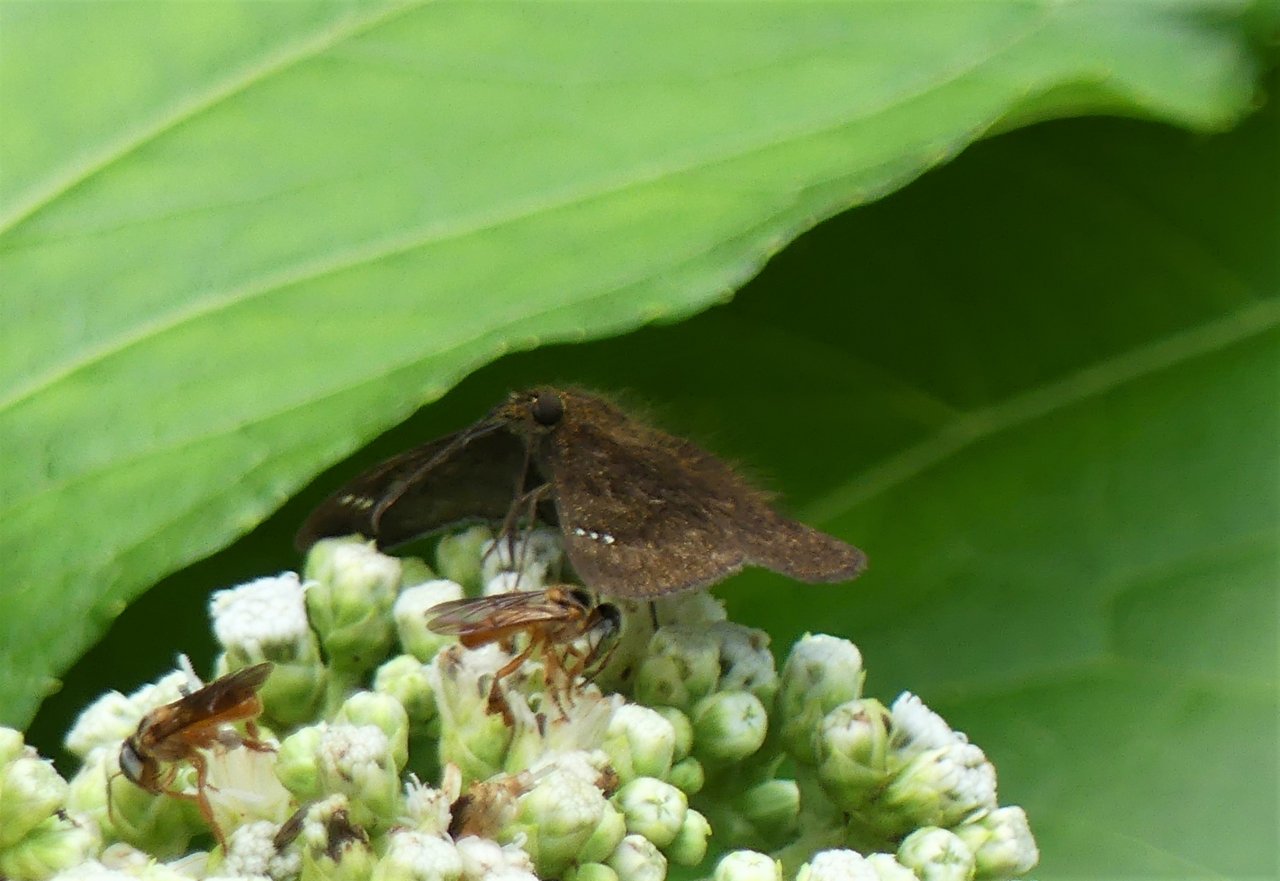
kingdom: Animalia
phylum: Arthropoda
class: Insecta
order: Lepidoptera
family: Hesperiidae
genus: Staphylus
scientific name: Staphylus vulgata
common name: Golden-snouted Sootywing
